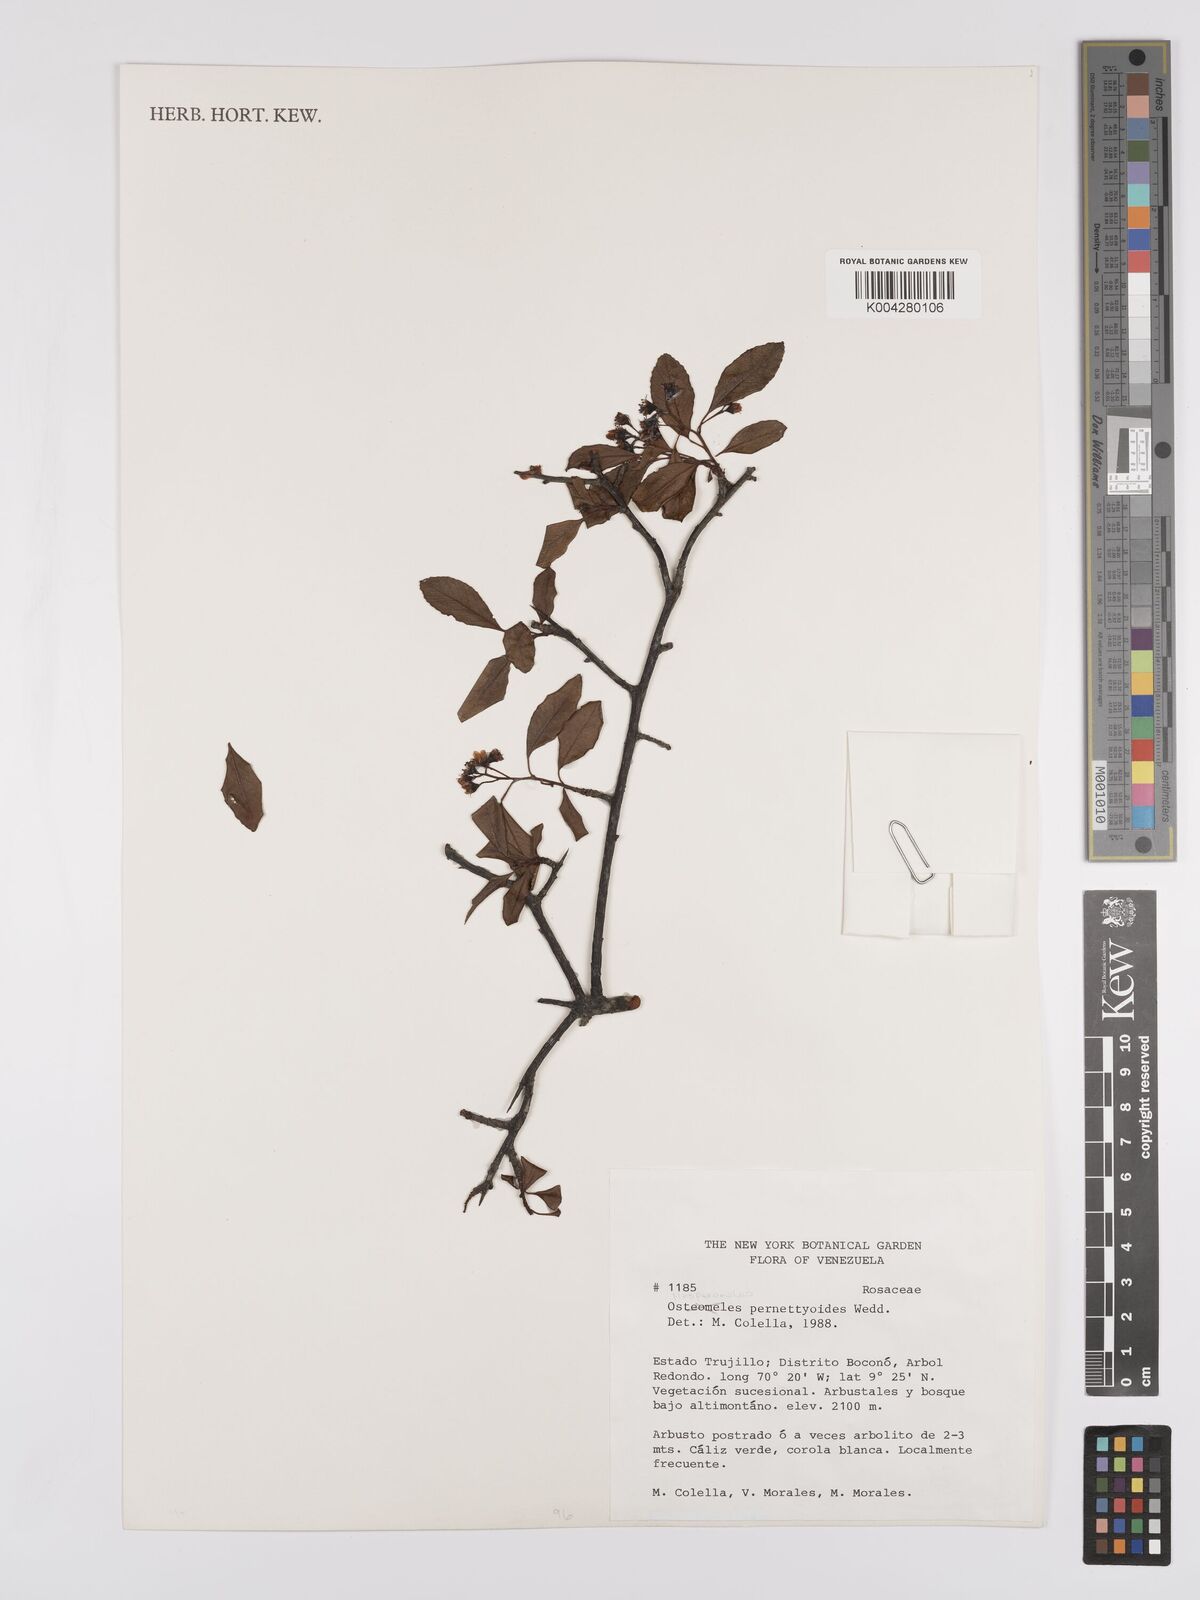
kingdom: Plantae
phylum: Tracheophyta
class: Magnoliopsida
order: Rosales
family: Rosaceae
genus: Hesperomeles
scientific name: Hesperomeles obtusifolia
